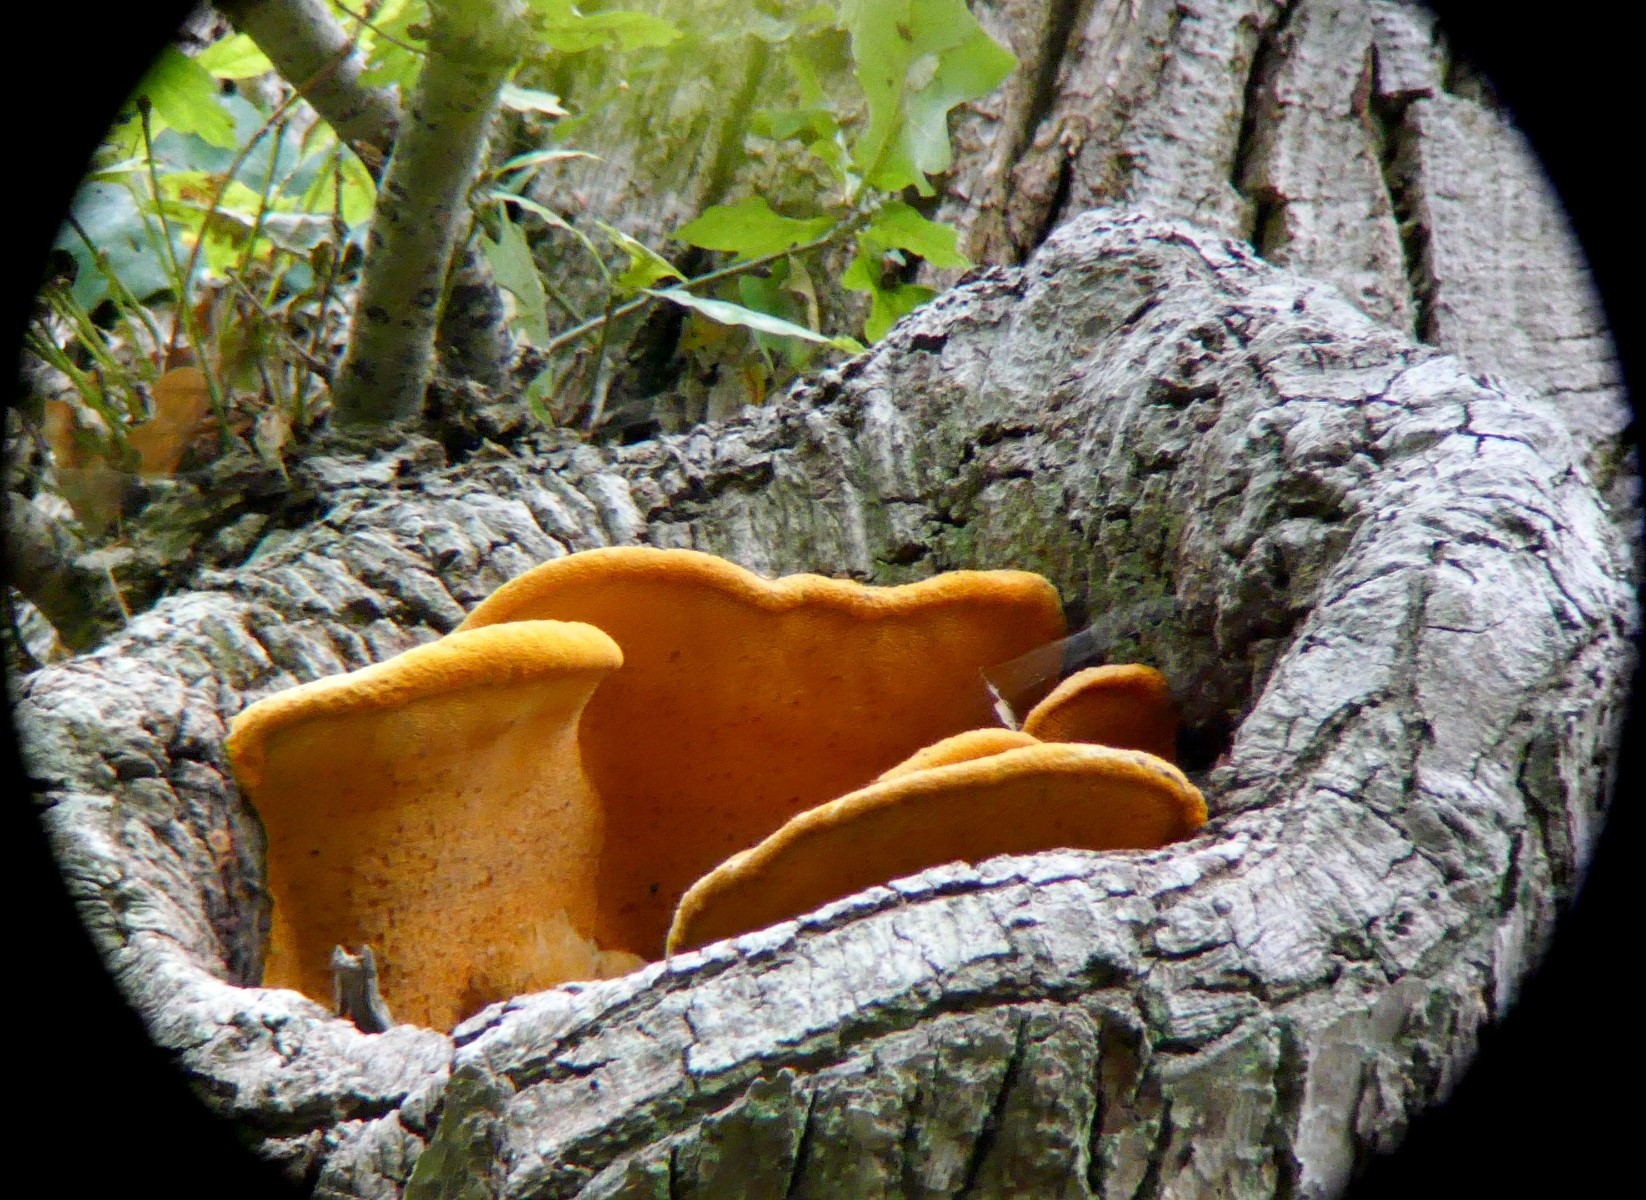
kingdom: Fungi
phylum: Basidiomycota
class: Agaricomycetes
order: Polyporales
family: Phanerochaetaceae
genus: Hapalopilus
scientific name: Hapalopilus croceus
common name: safrangul pragtporesvamp
